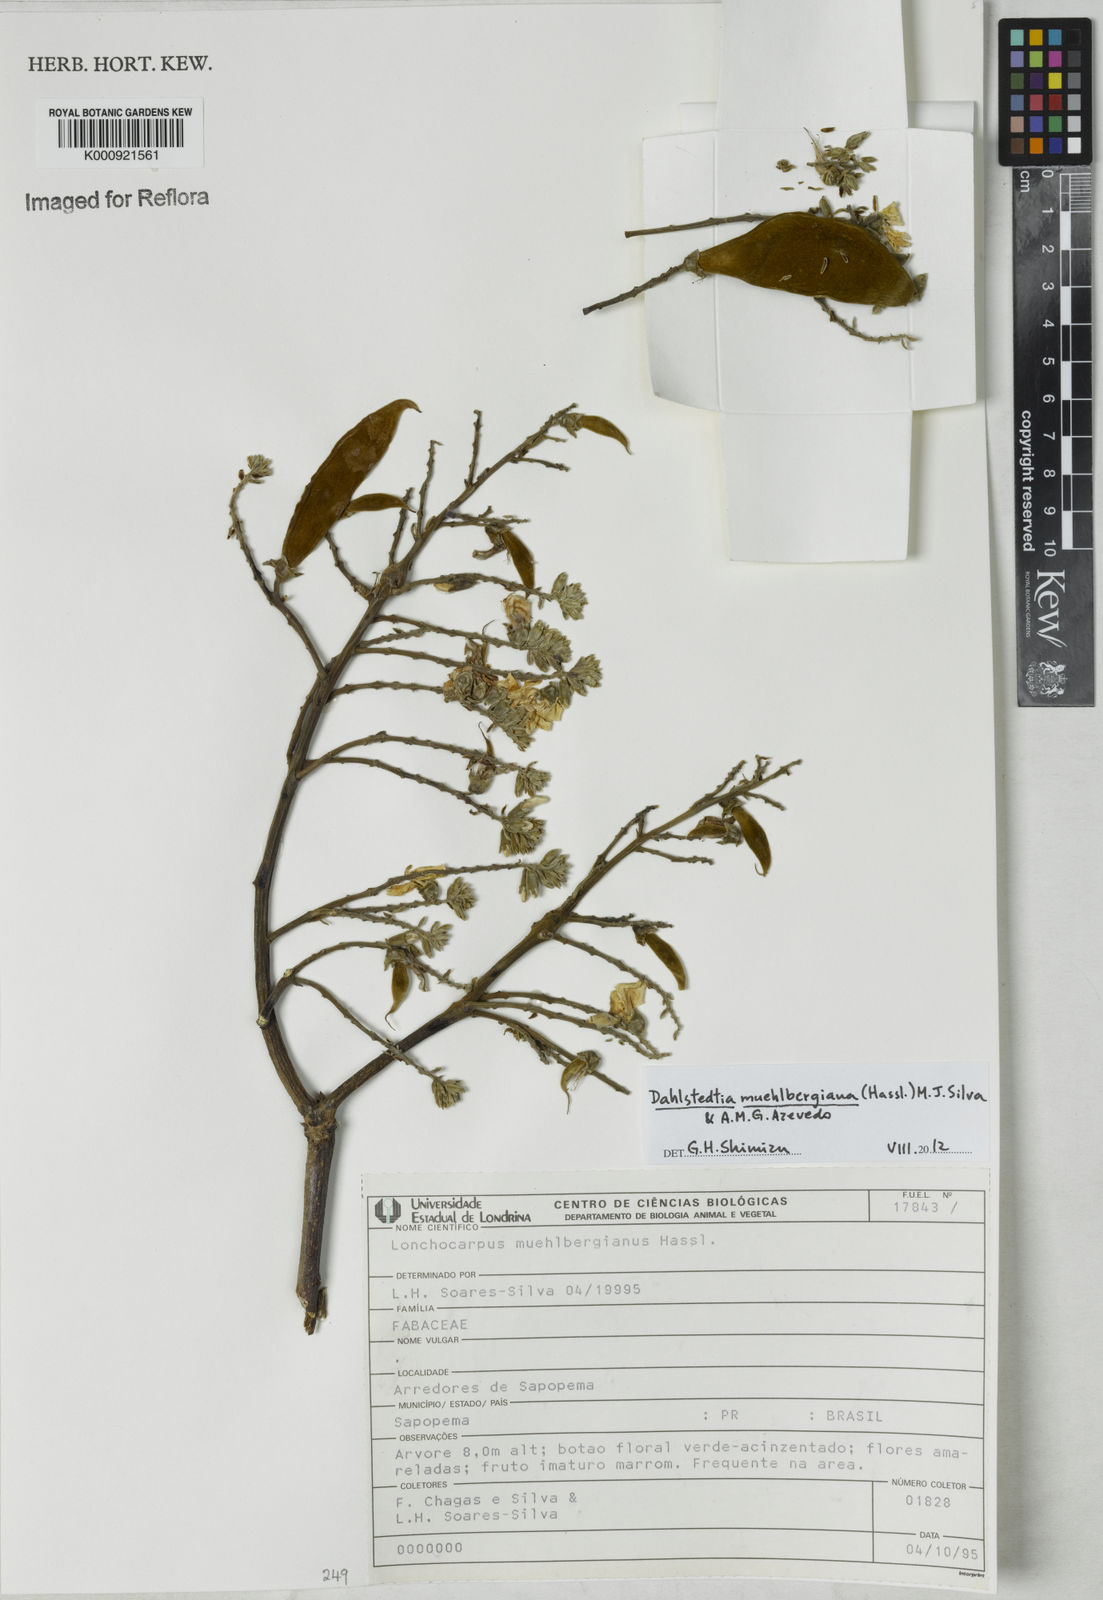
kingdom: Plantae
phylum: Tracheophyta
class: Magnoliopsida
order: Fabales
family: Fabaceae
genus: Dahlstedtia
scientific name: Dahlstedtia muehlbergiana
